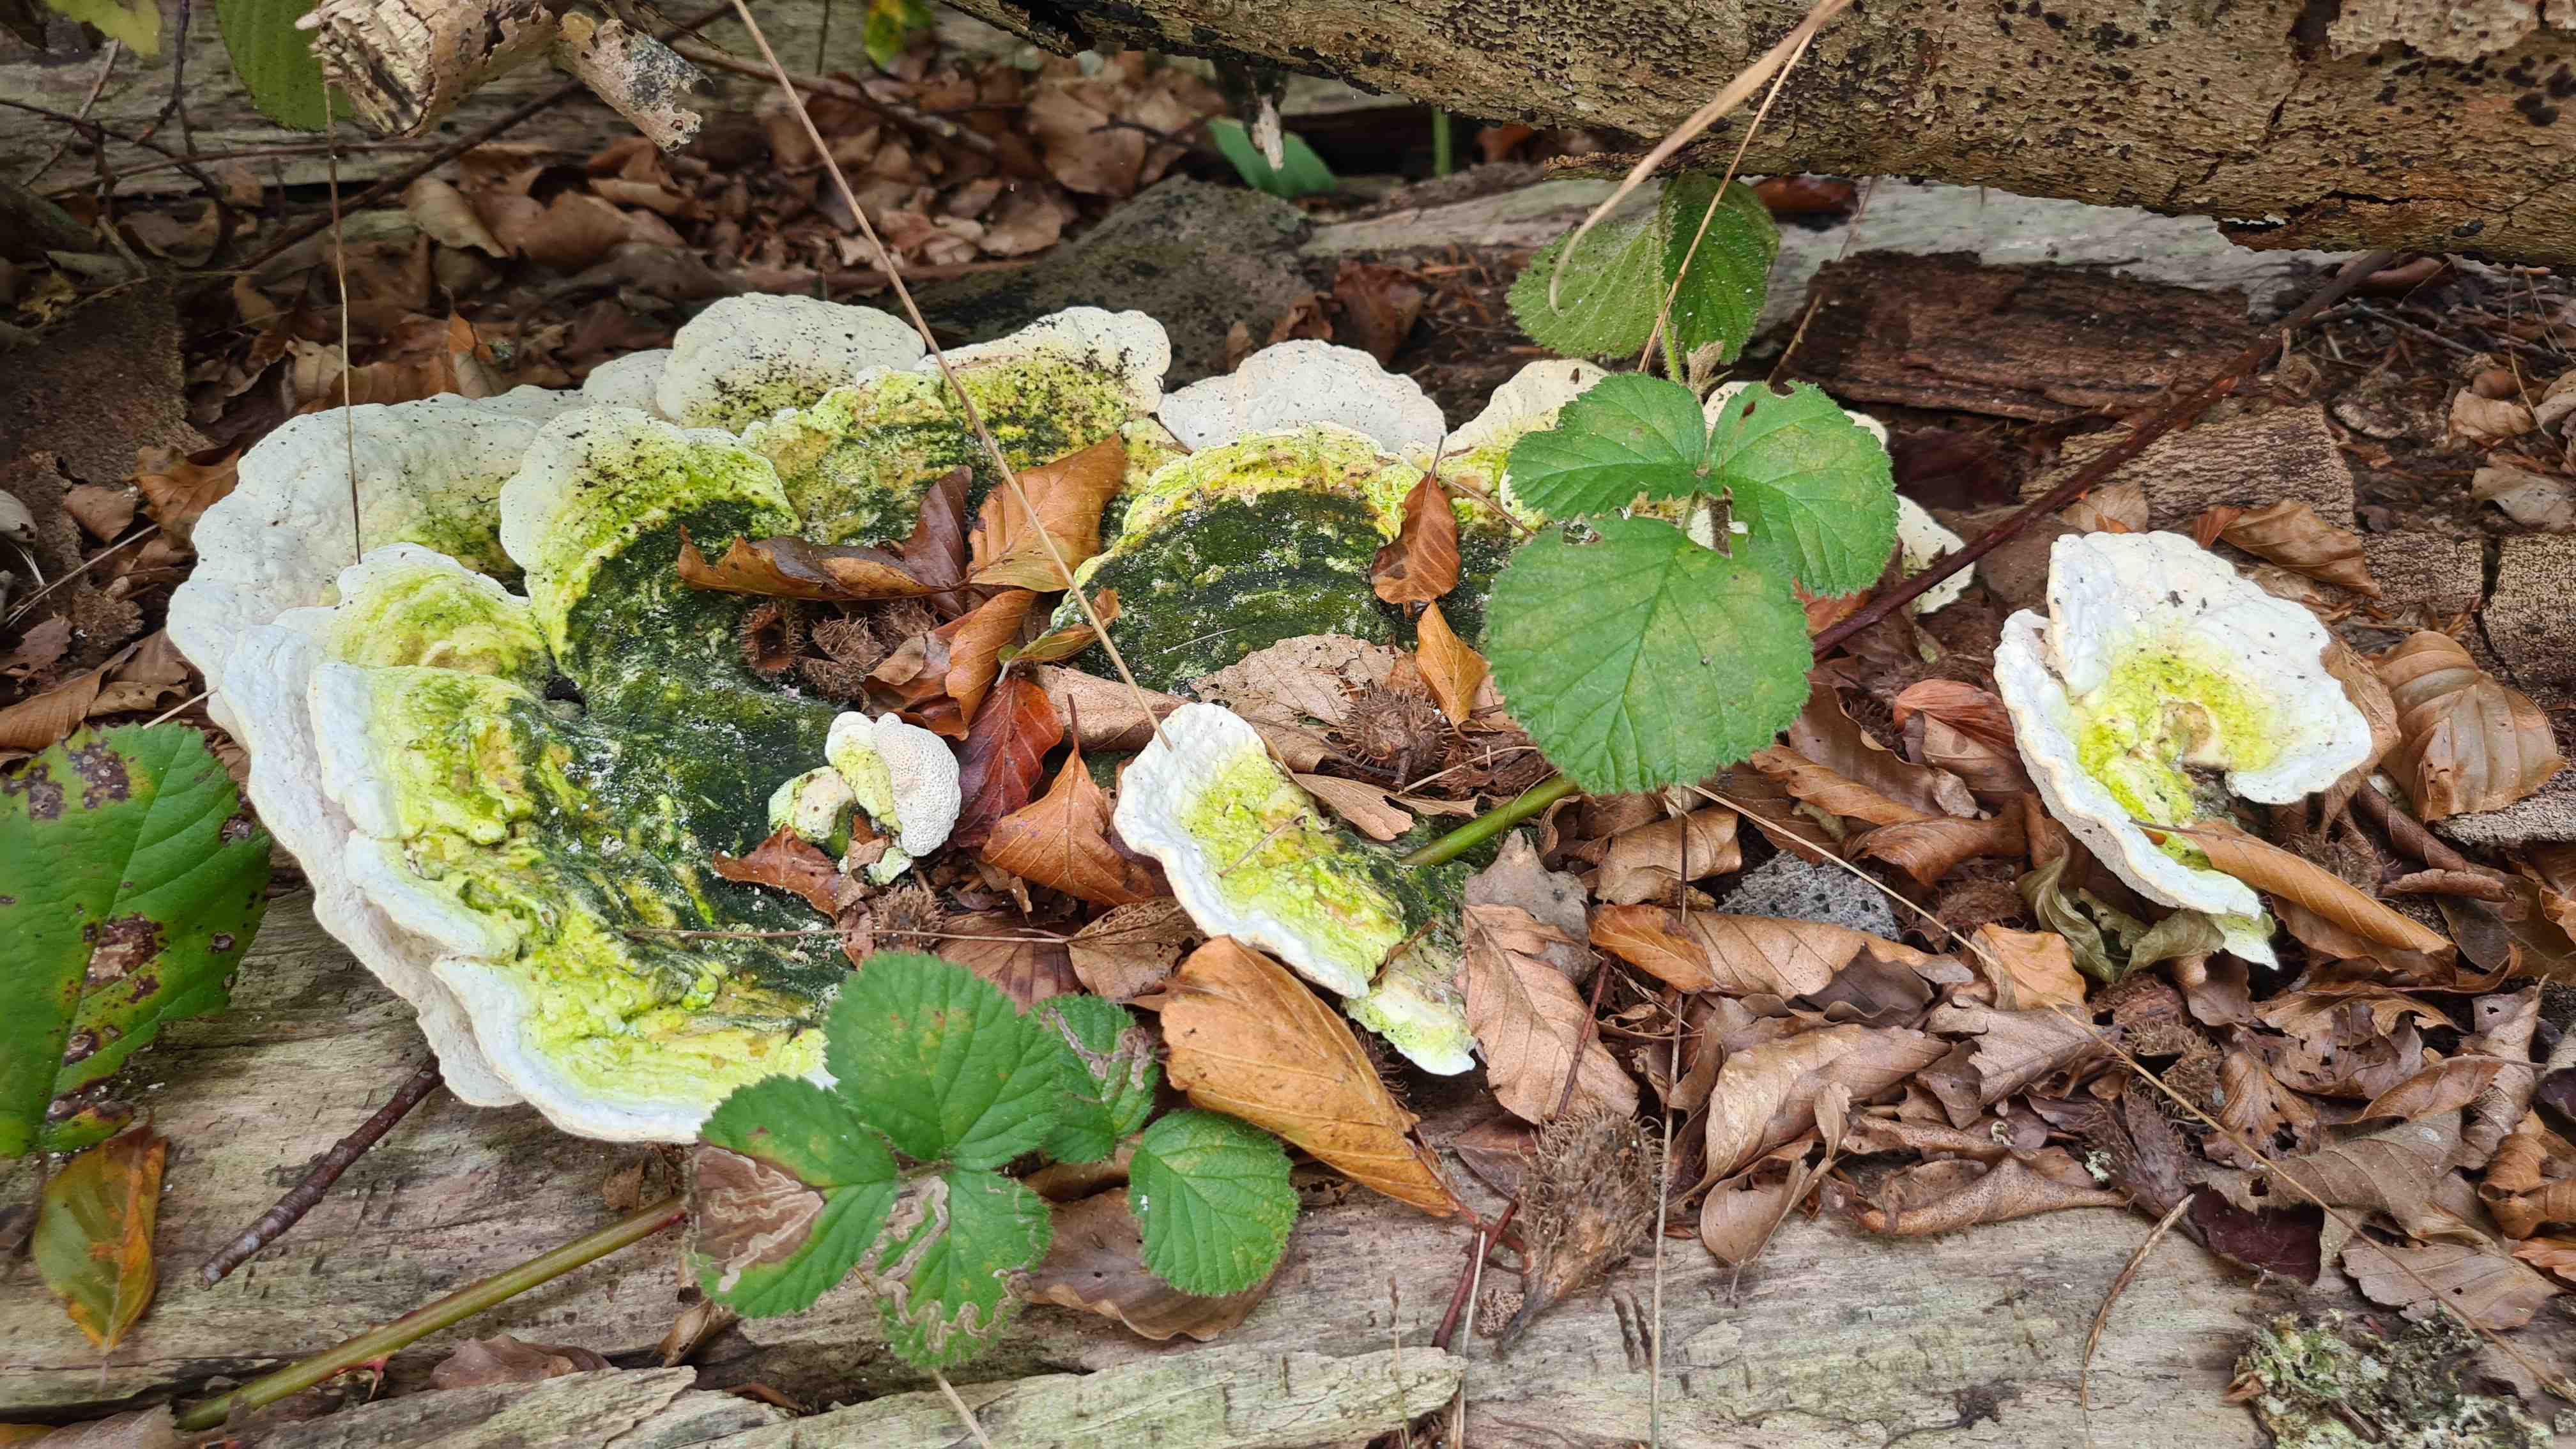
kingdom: Fungi
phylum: Basidiomycota
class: Agaricomycetes
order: Polyporales
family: Polyporaceae
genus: Trametes
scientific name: Trametes gibbosa
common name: puklet læderporesvamp
